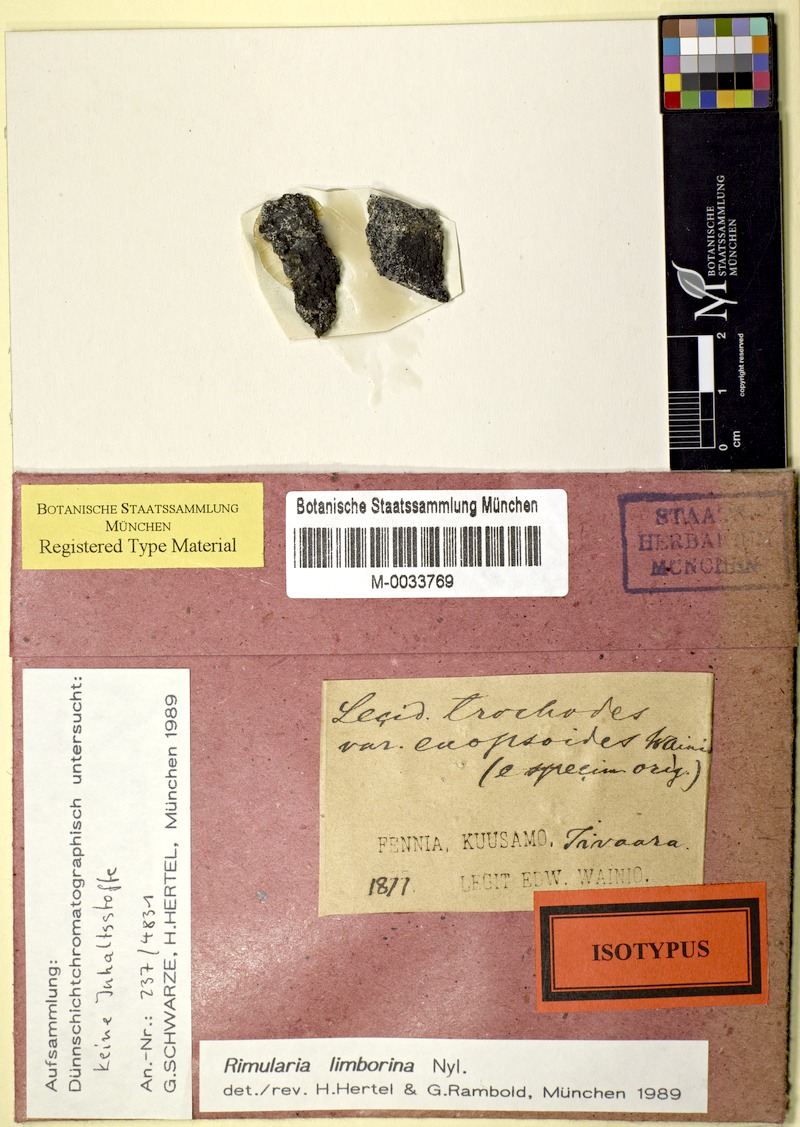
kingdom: Fungi
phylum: Ascomycota
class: Lecanoromycetes
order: Baeomycetales
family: Trapeliaceae
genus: Rimularia
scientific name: Rimularia limborina
